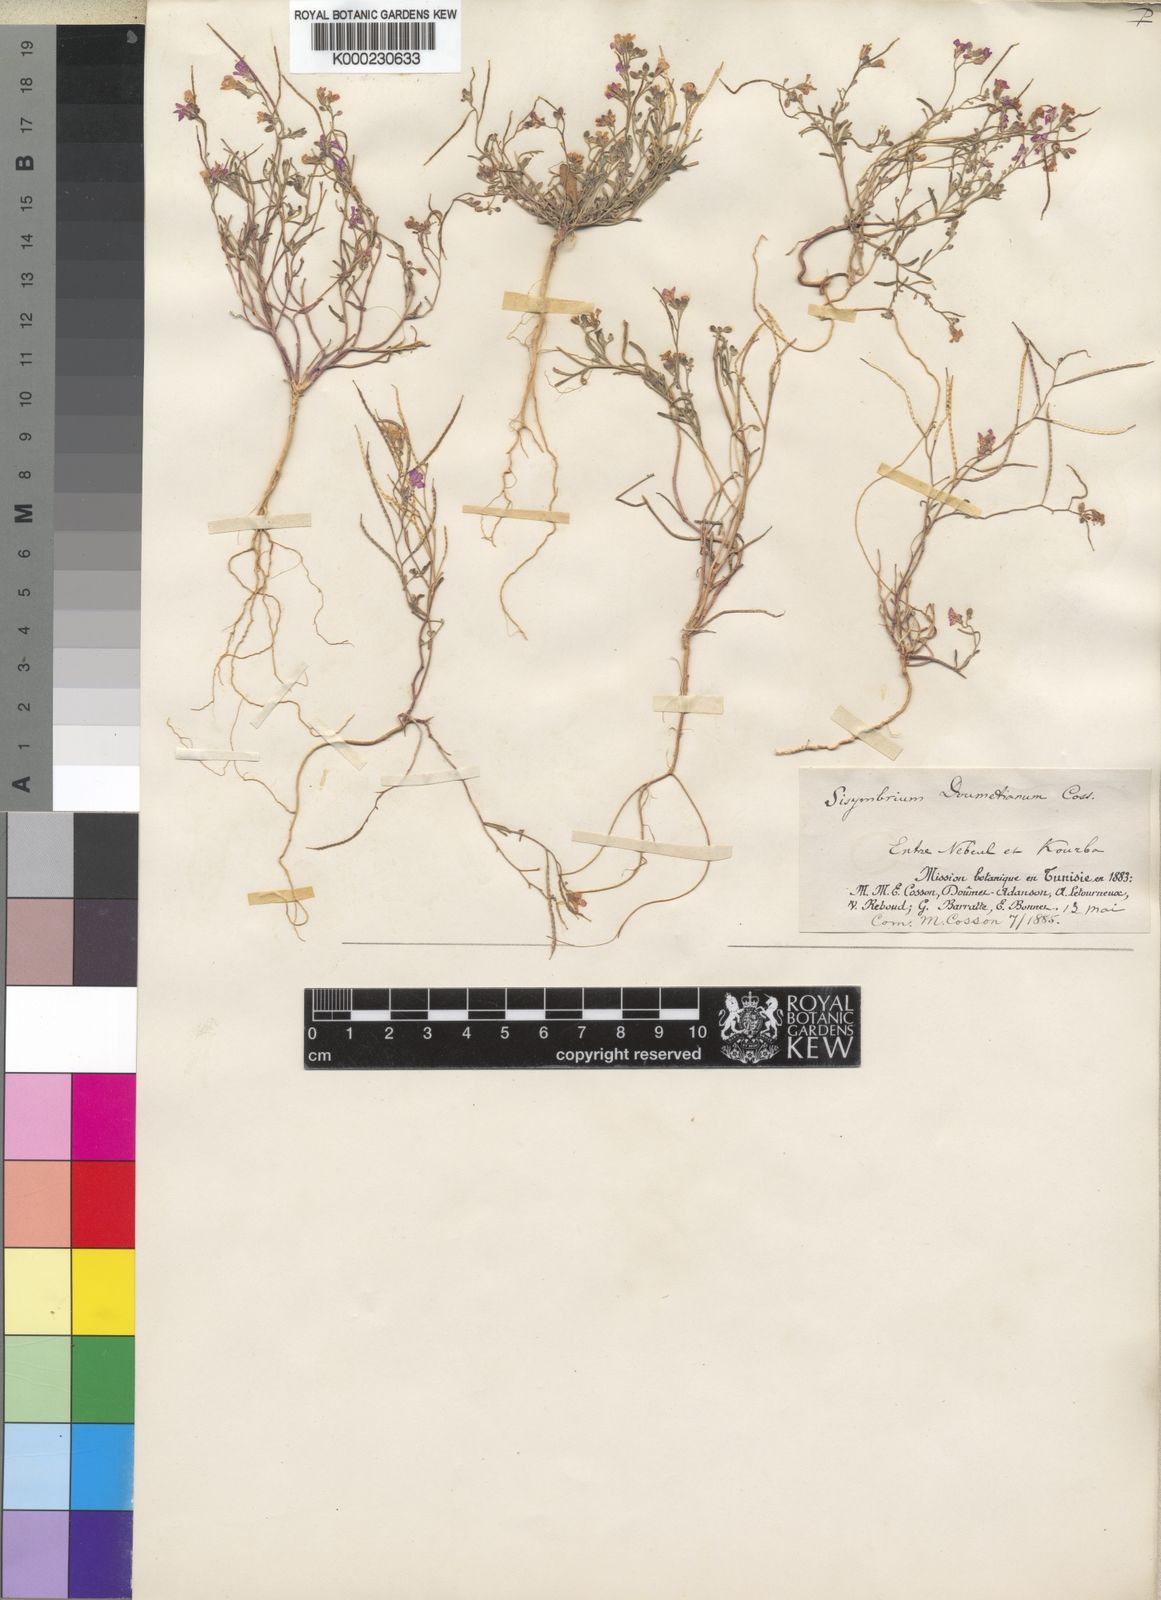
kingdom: Plantae
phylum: Tracheophyta
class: Magnoliopsida
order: Brassicales
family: Brassicaceae
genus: Maresia
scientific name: Maresia doumetiana
